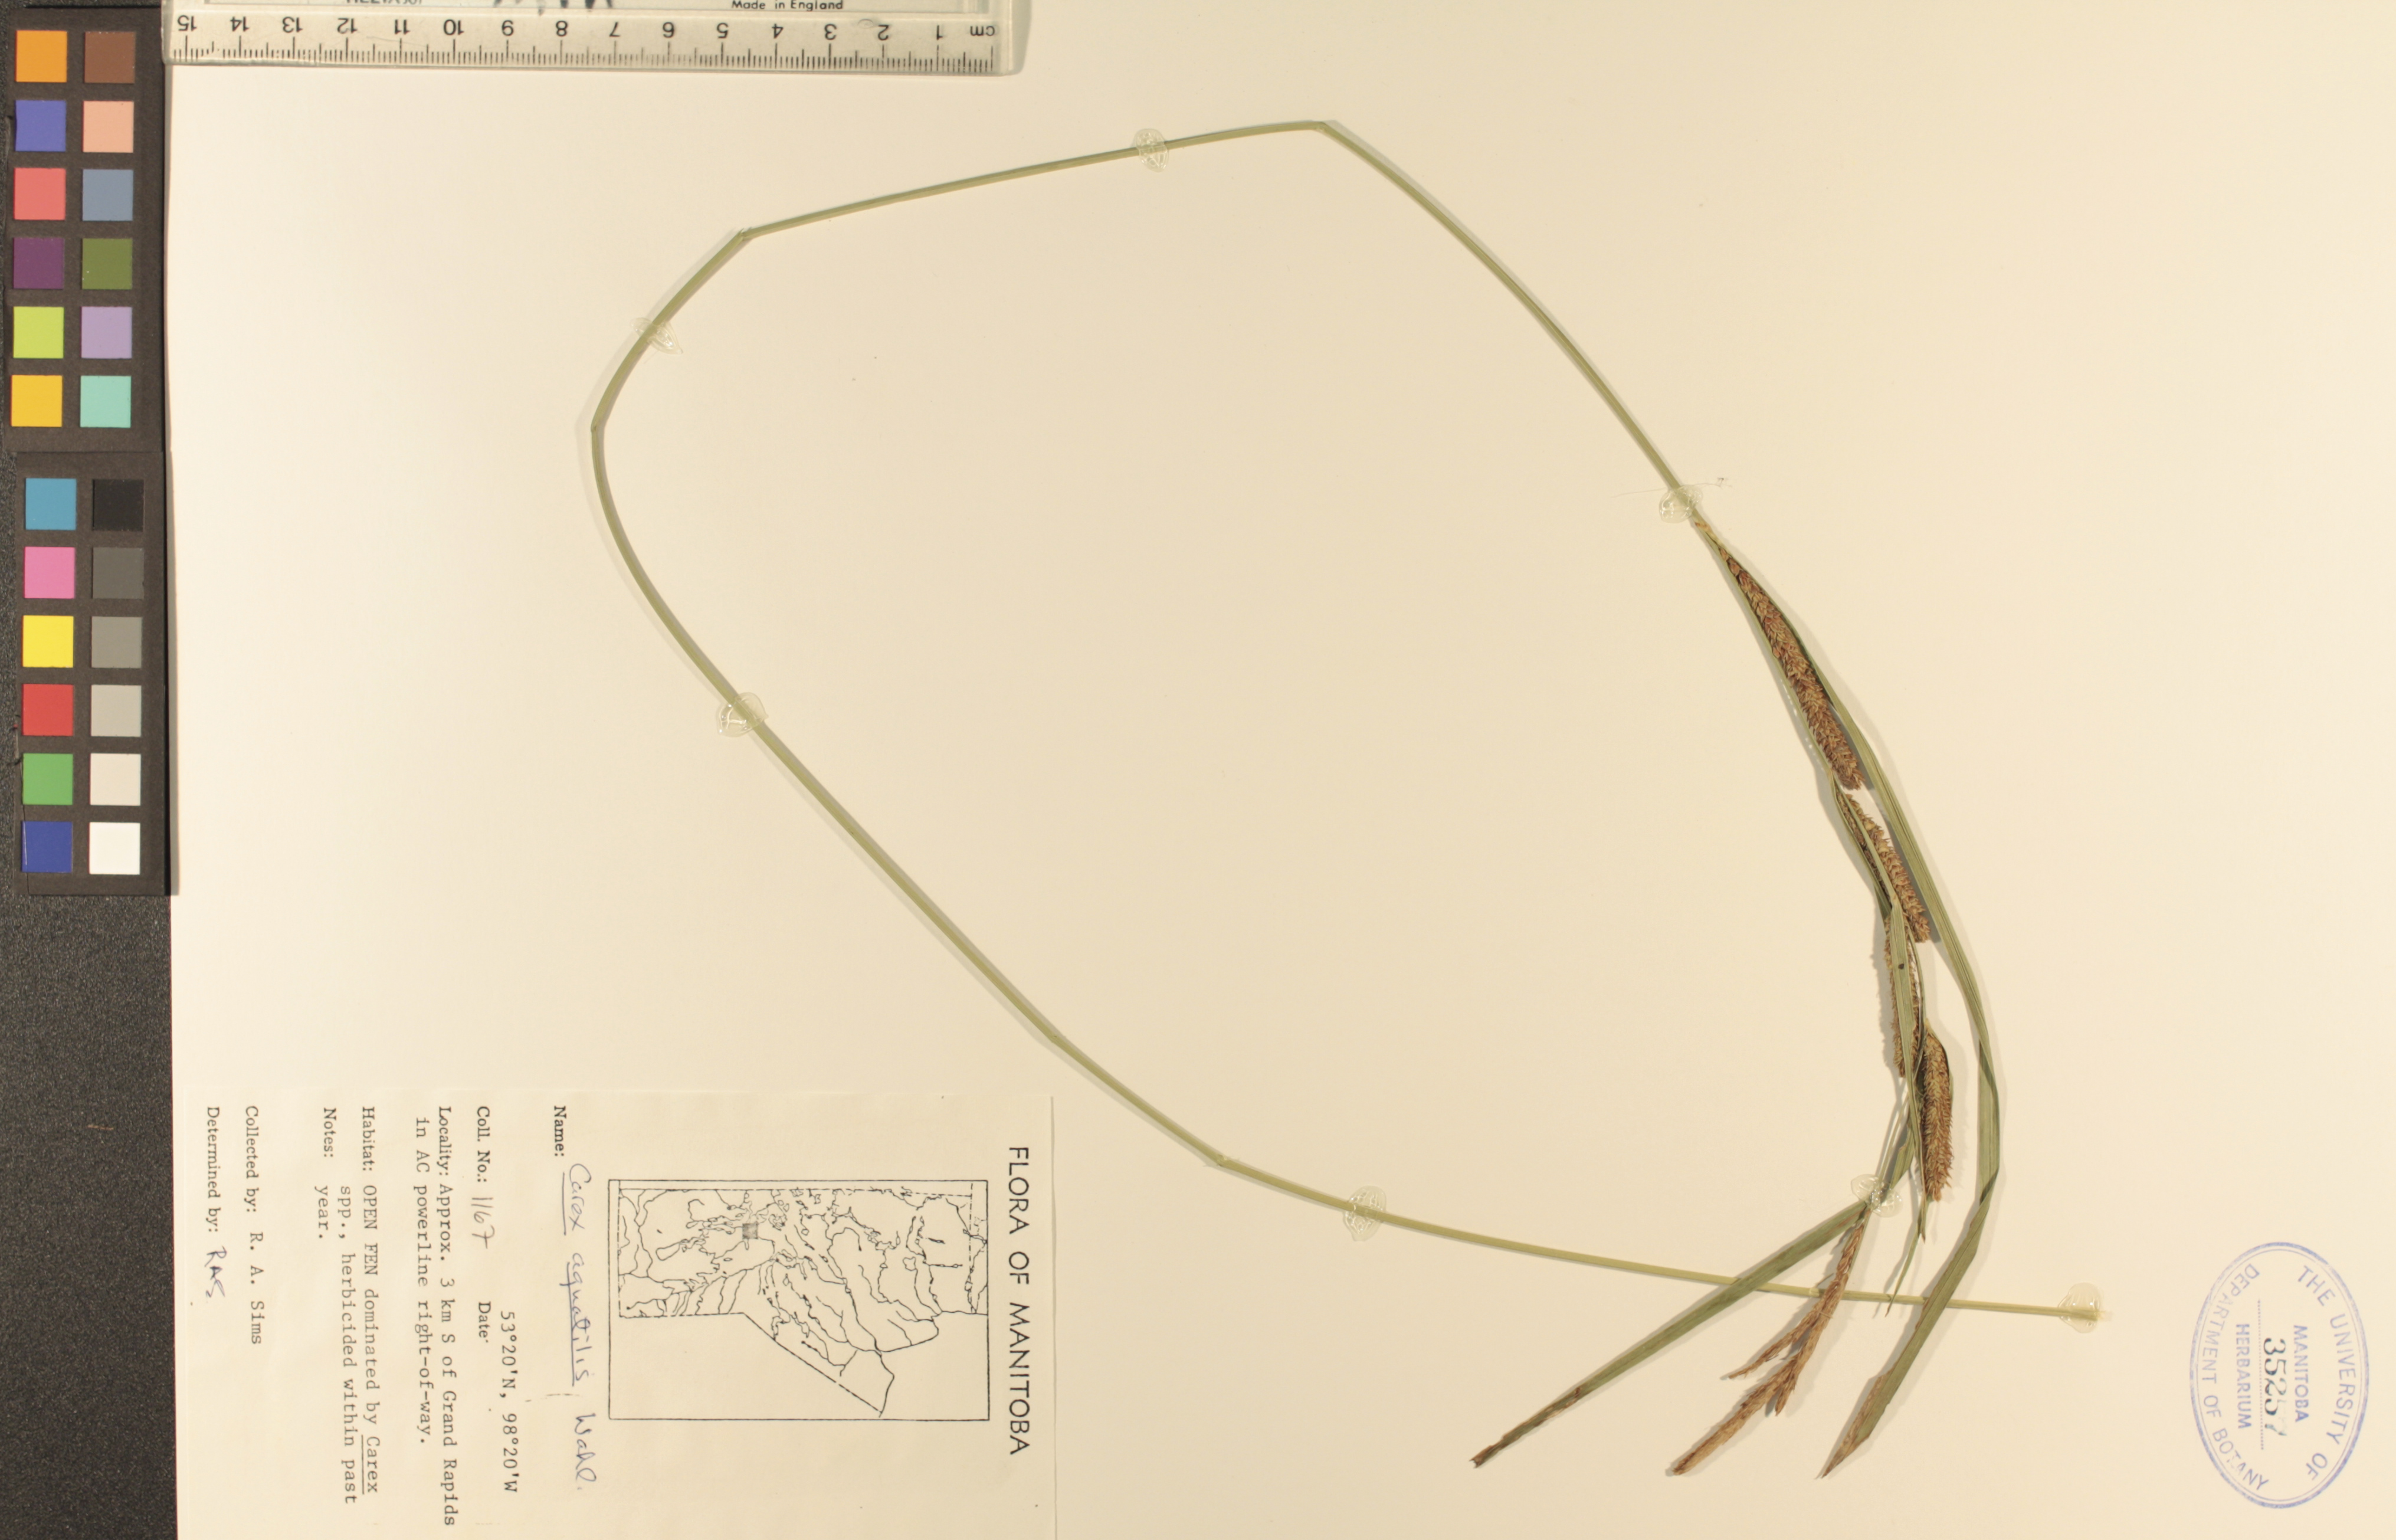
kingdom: Plantae
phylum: Tracheophyta
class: Liliopsida
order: Poales
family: Cyperaceae
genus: Carex
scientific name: Carex aquatilis
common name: Water sedge
